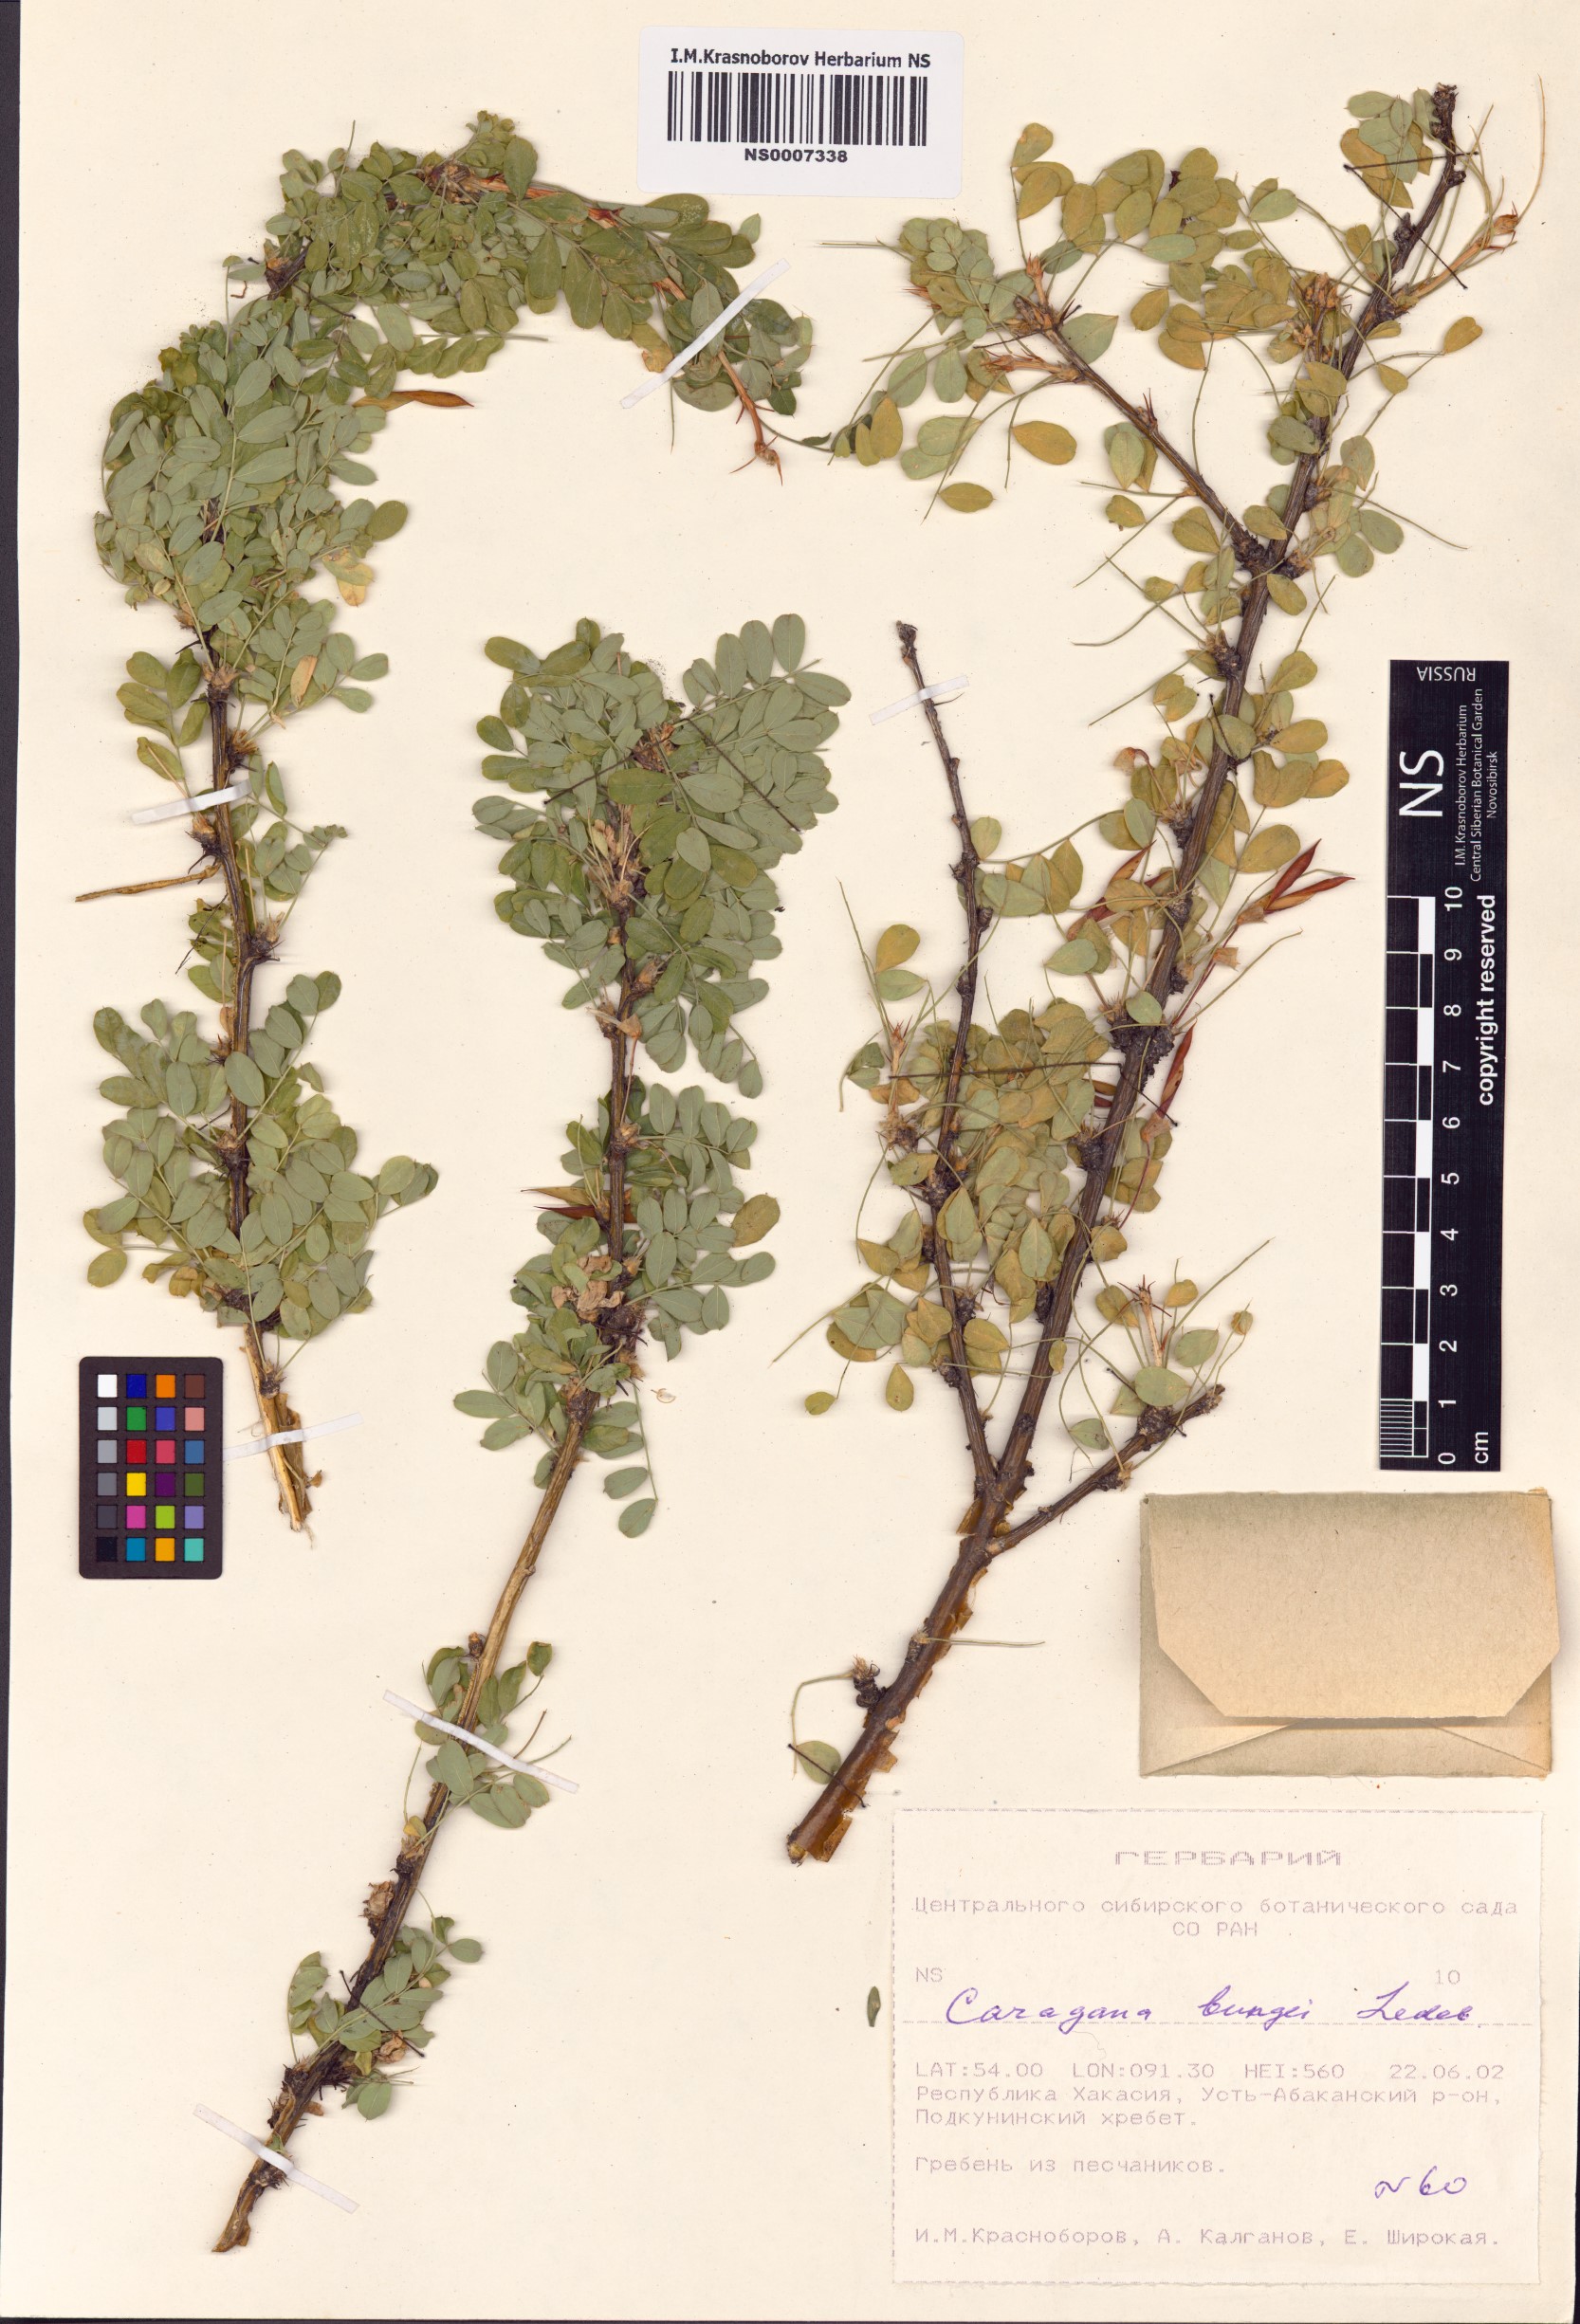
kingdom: Plantae
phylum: Tracheophyta
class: Magnoliopsida
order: Fabales
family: Fabaceae
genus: Caragana
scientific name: Caragana bungei
